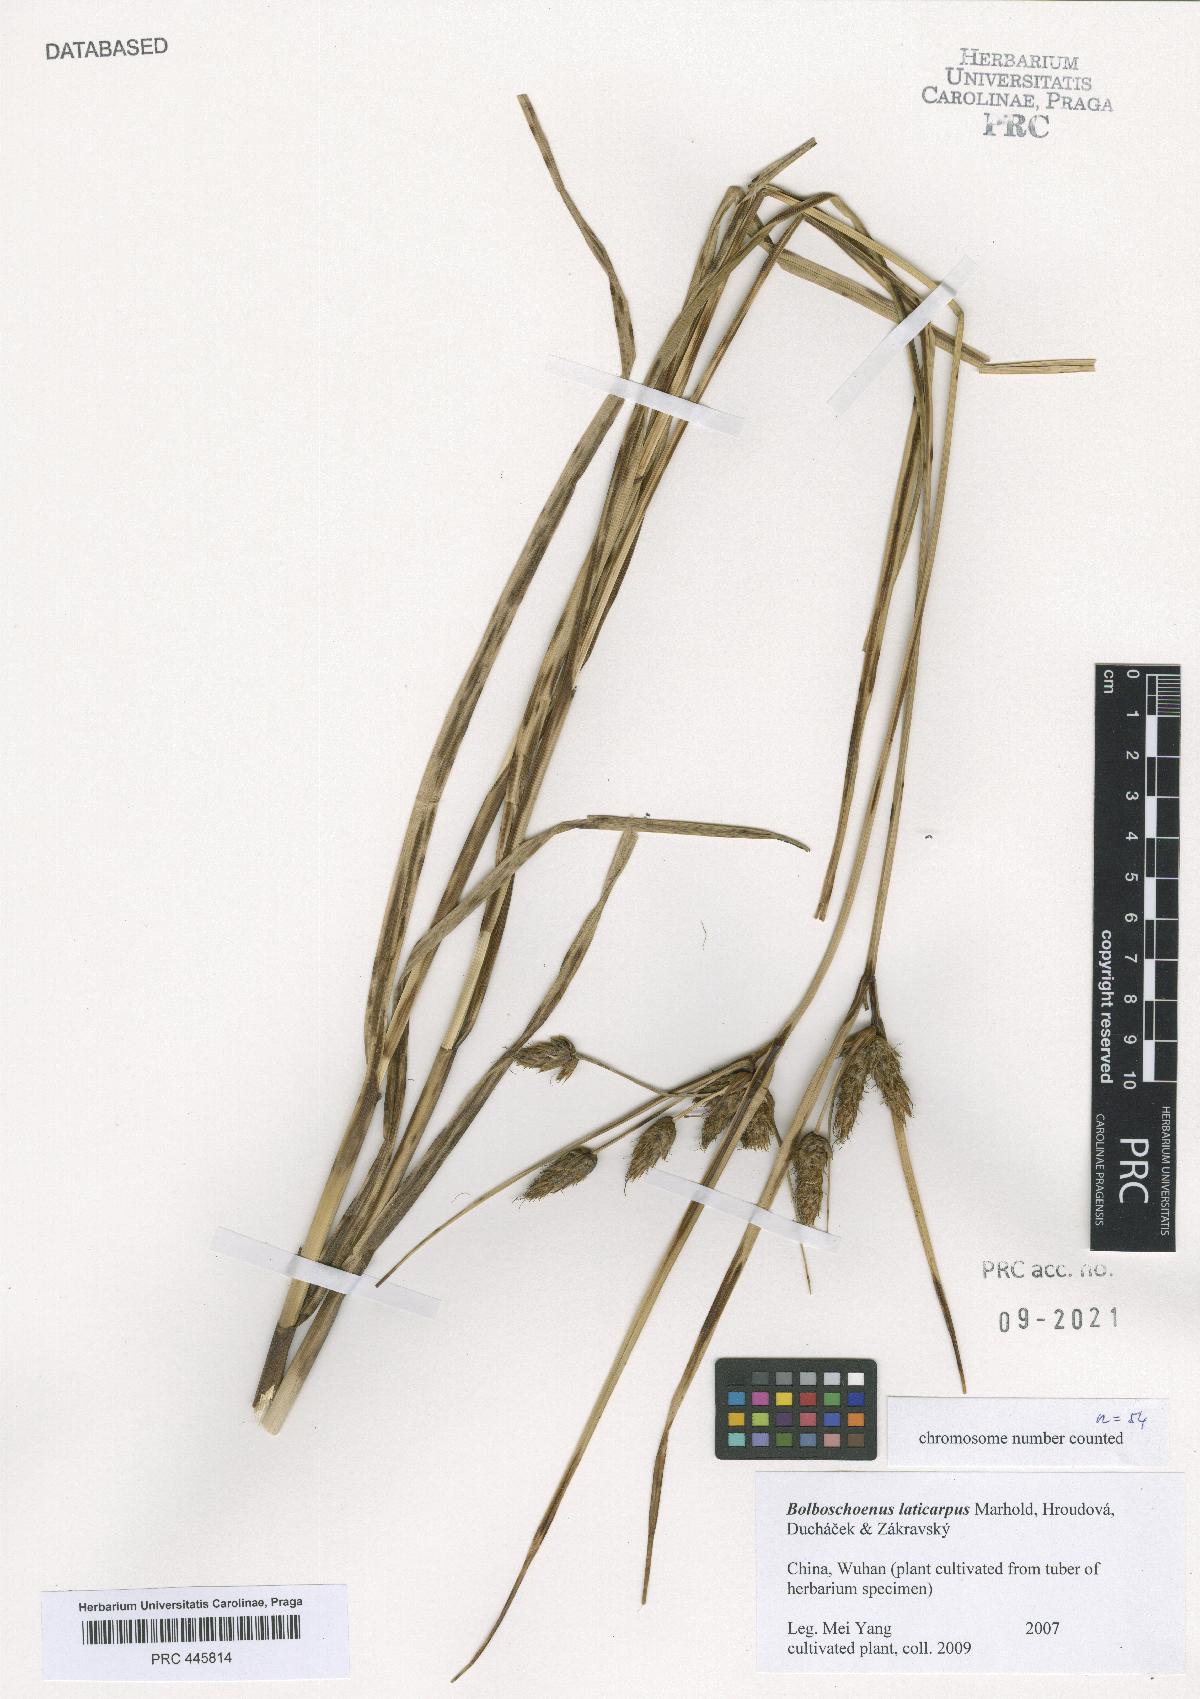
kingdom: Plantae
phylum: Tracheophyta
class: Liliopsida
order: Poales
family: Cyperaceae
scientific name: Cyperaceae
